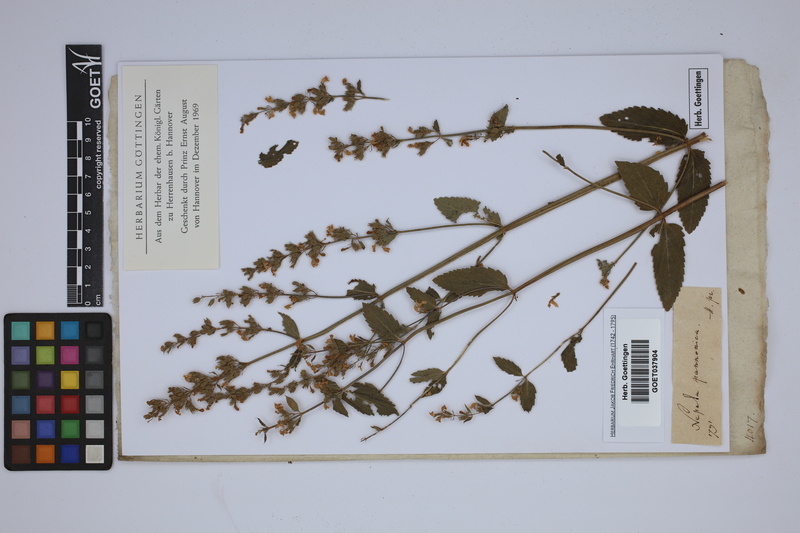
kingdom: Plantae
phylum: Tracheophyta
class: Magnoliopsida
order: Lamiales
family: Lamiaceae
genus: Nepeta
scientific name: Nepeta nuda
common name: Hairless catmint
